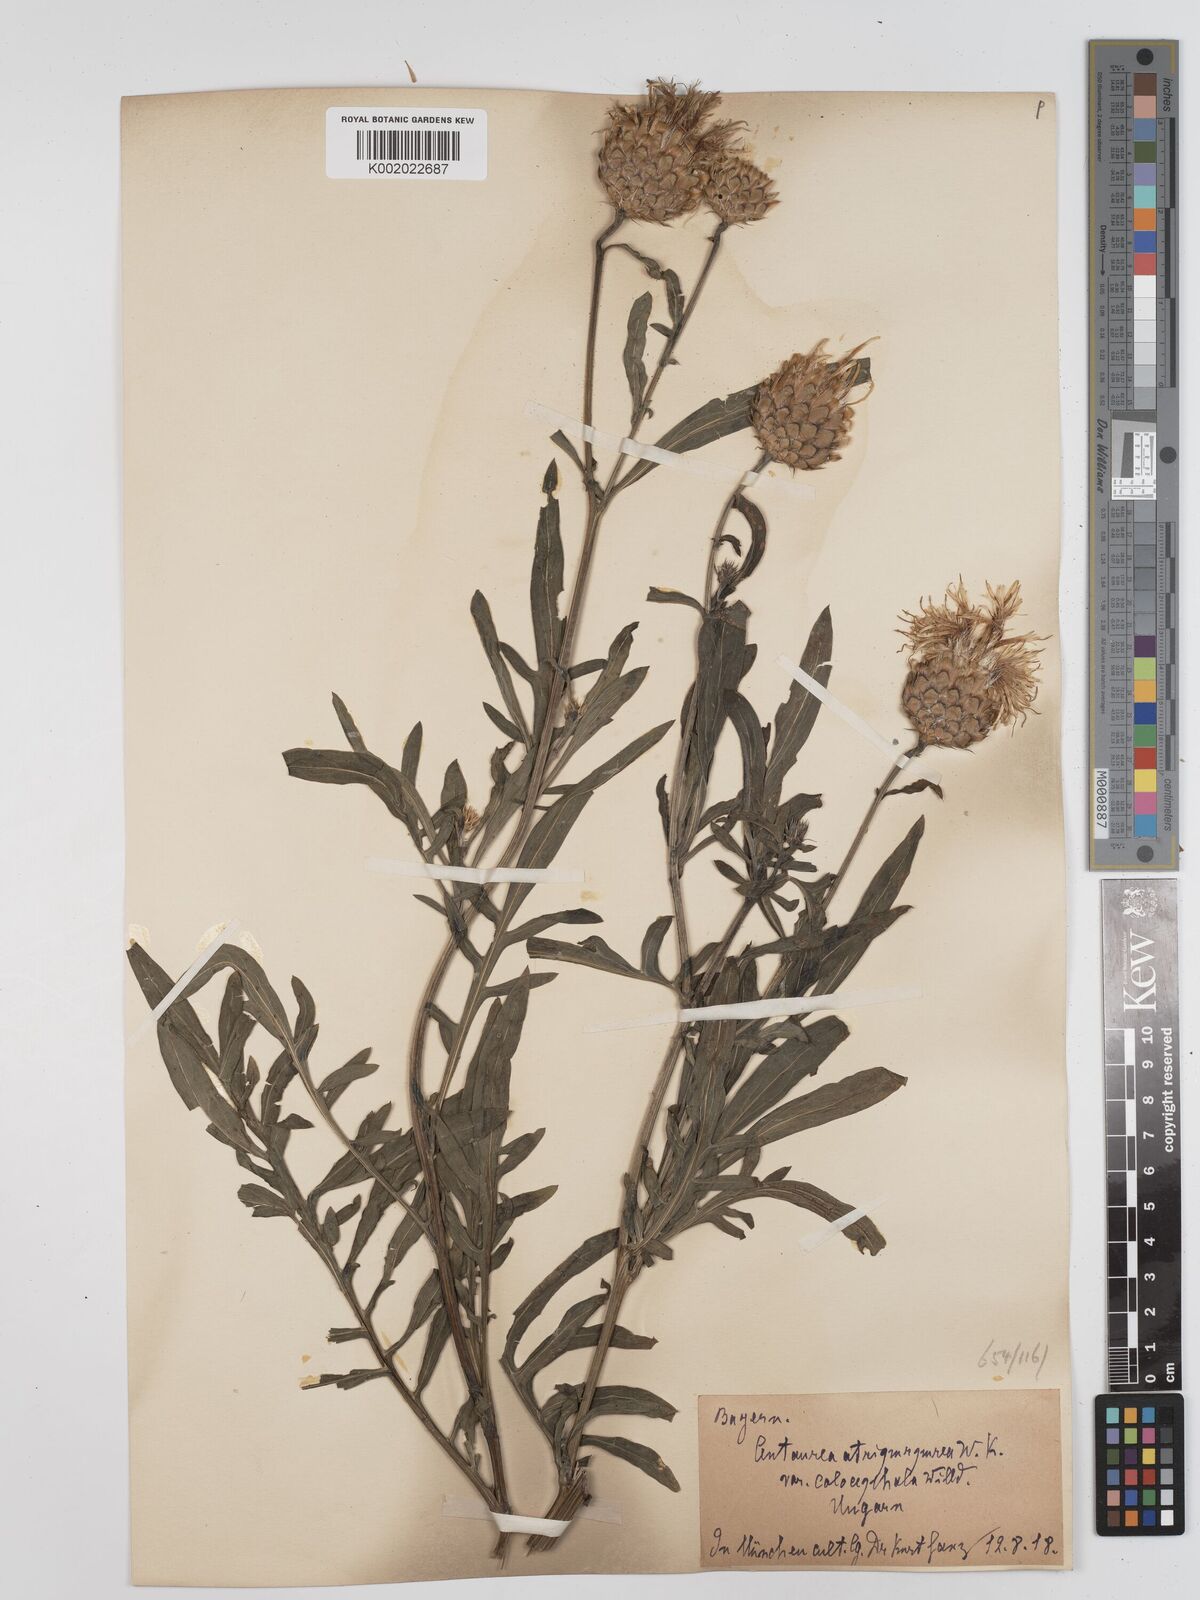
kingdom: Plantae
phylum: Tracheophyta
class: Magnoliopsida
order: Asterales
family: Asteraceae
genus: Centaurea
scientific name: Centaurea calocephala
